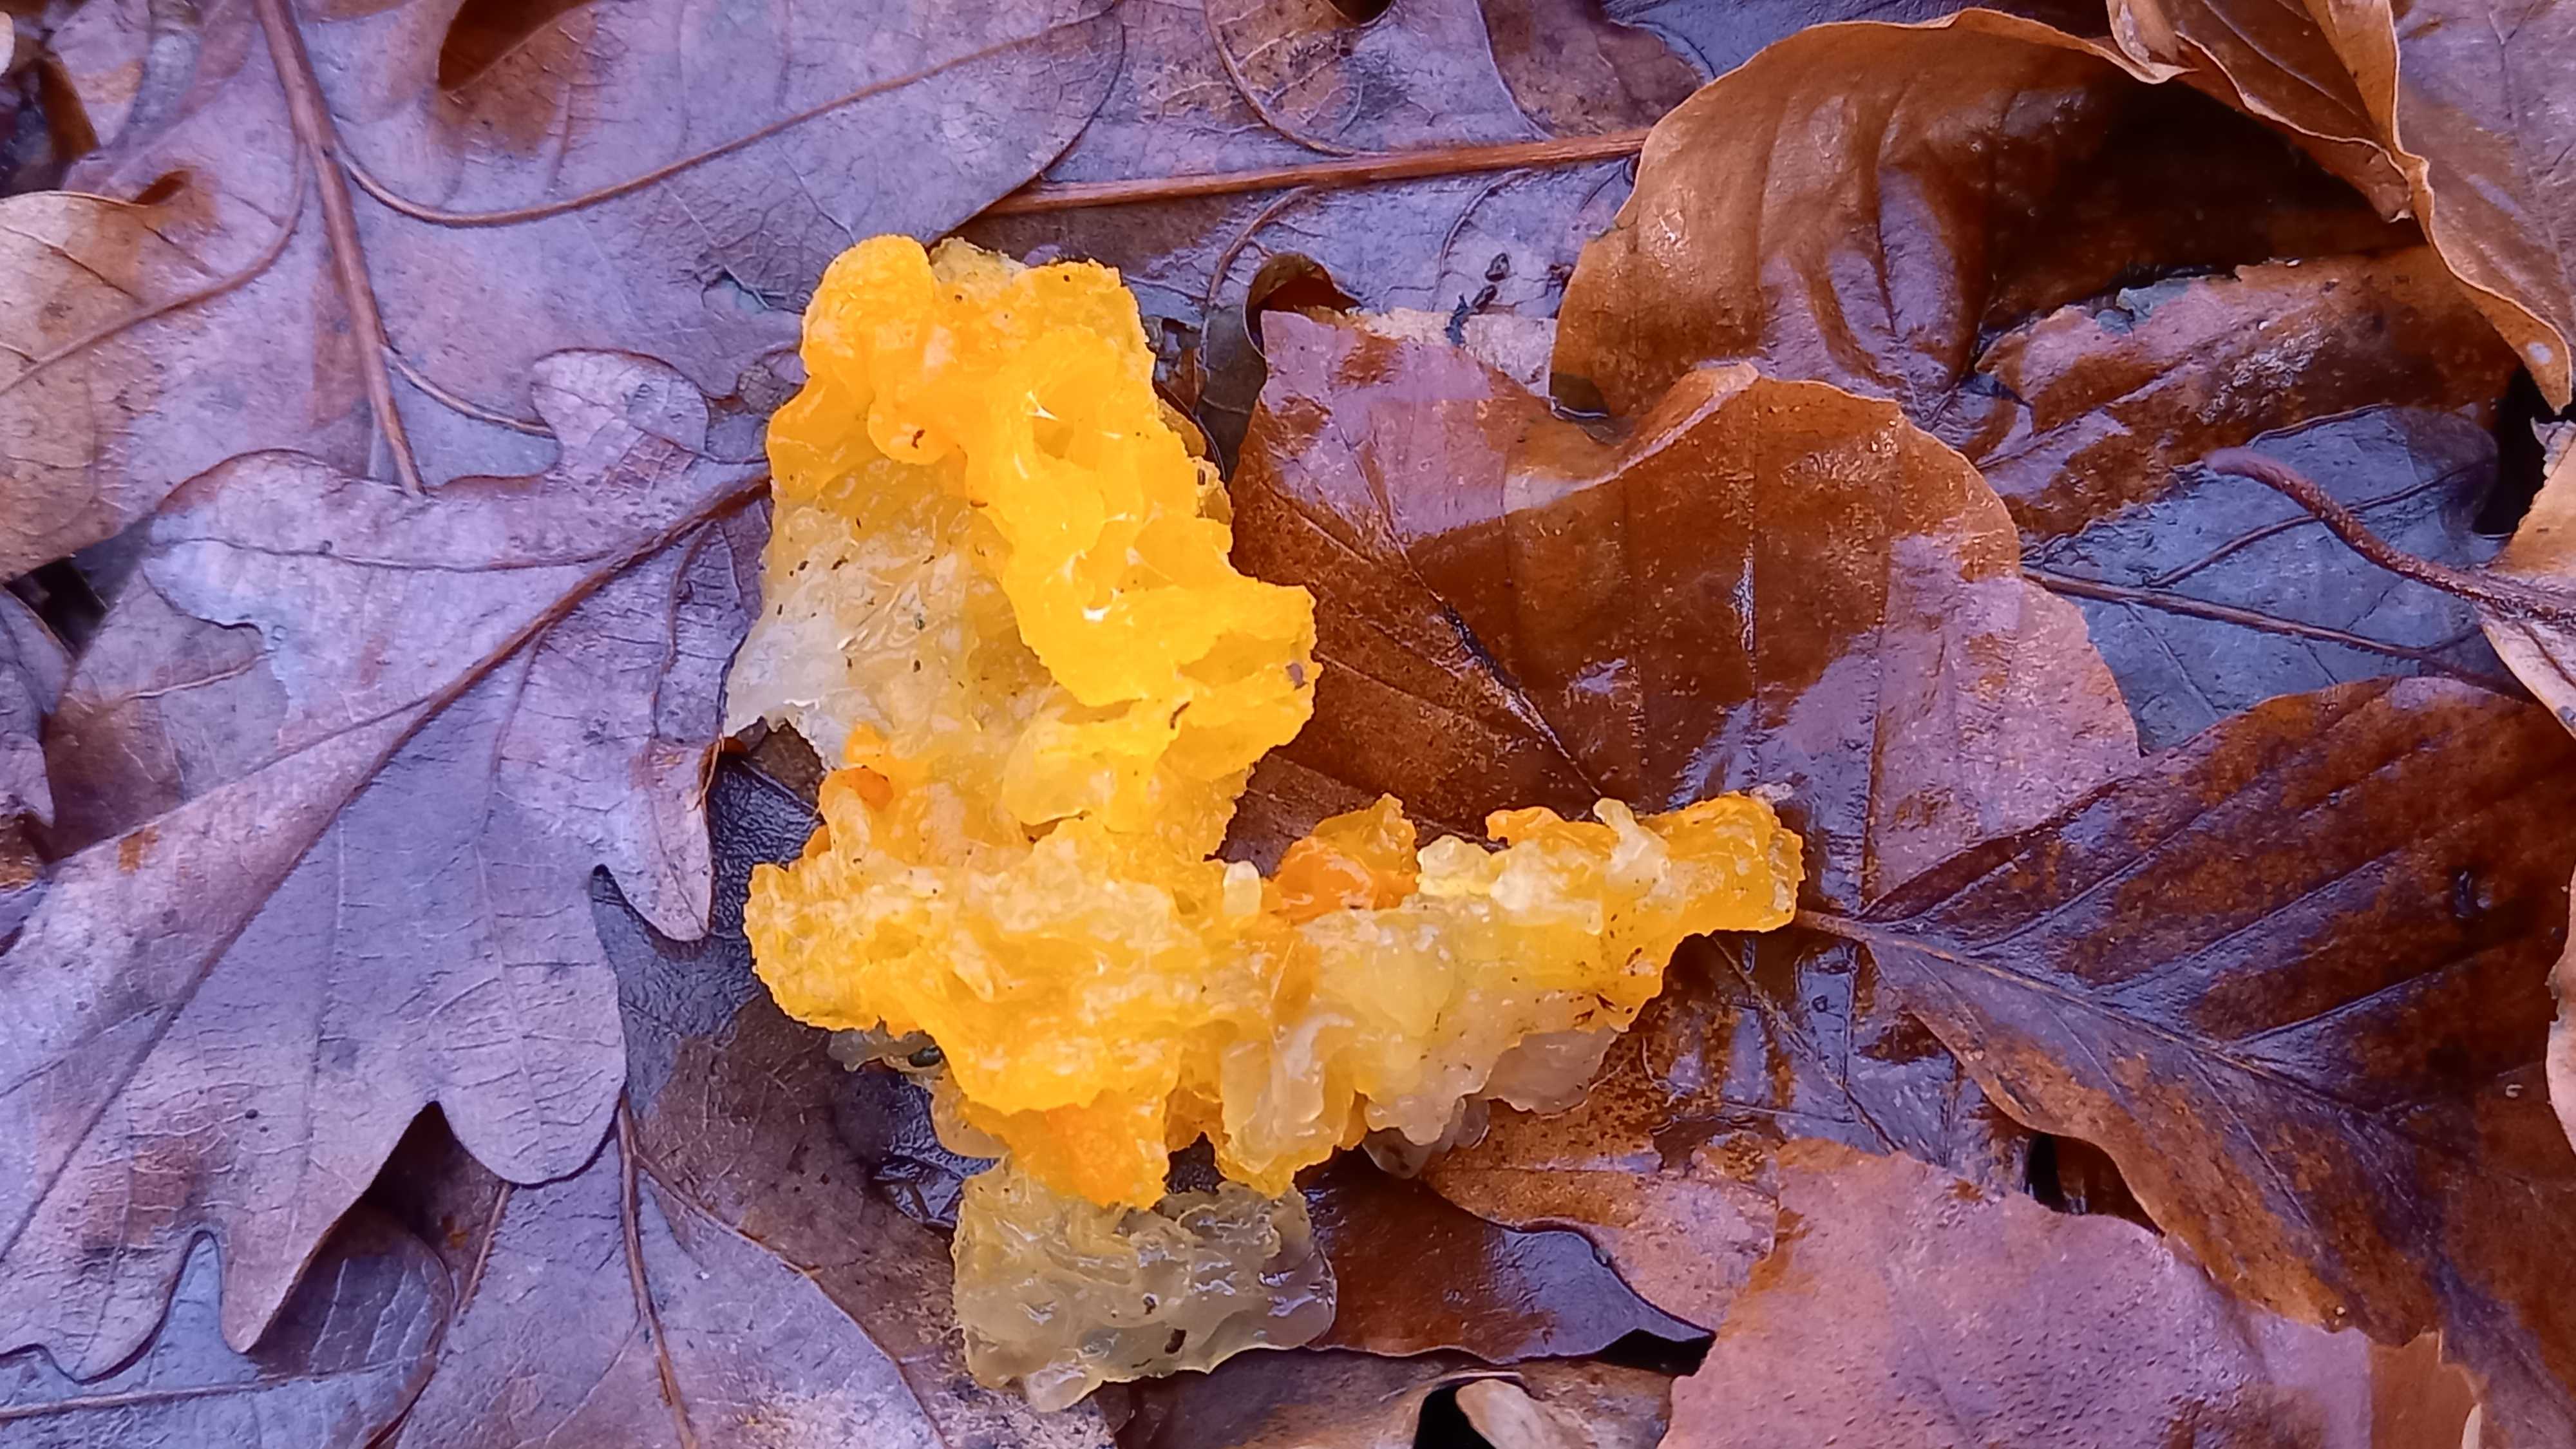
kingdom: Fungi
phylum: Basidiomycota
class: Tremellomycetes
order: Tremellales
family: Tremellaceae
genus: Tremella
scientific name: Tremella mesenterica
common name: gul bævresvamp
